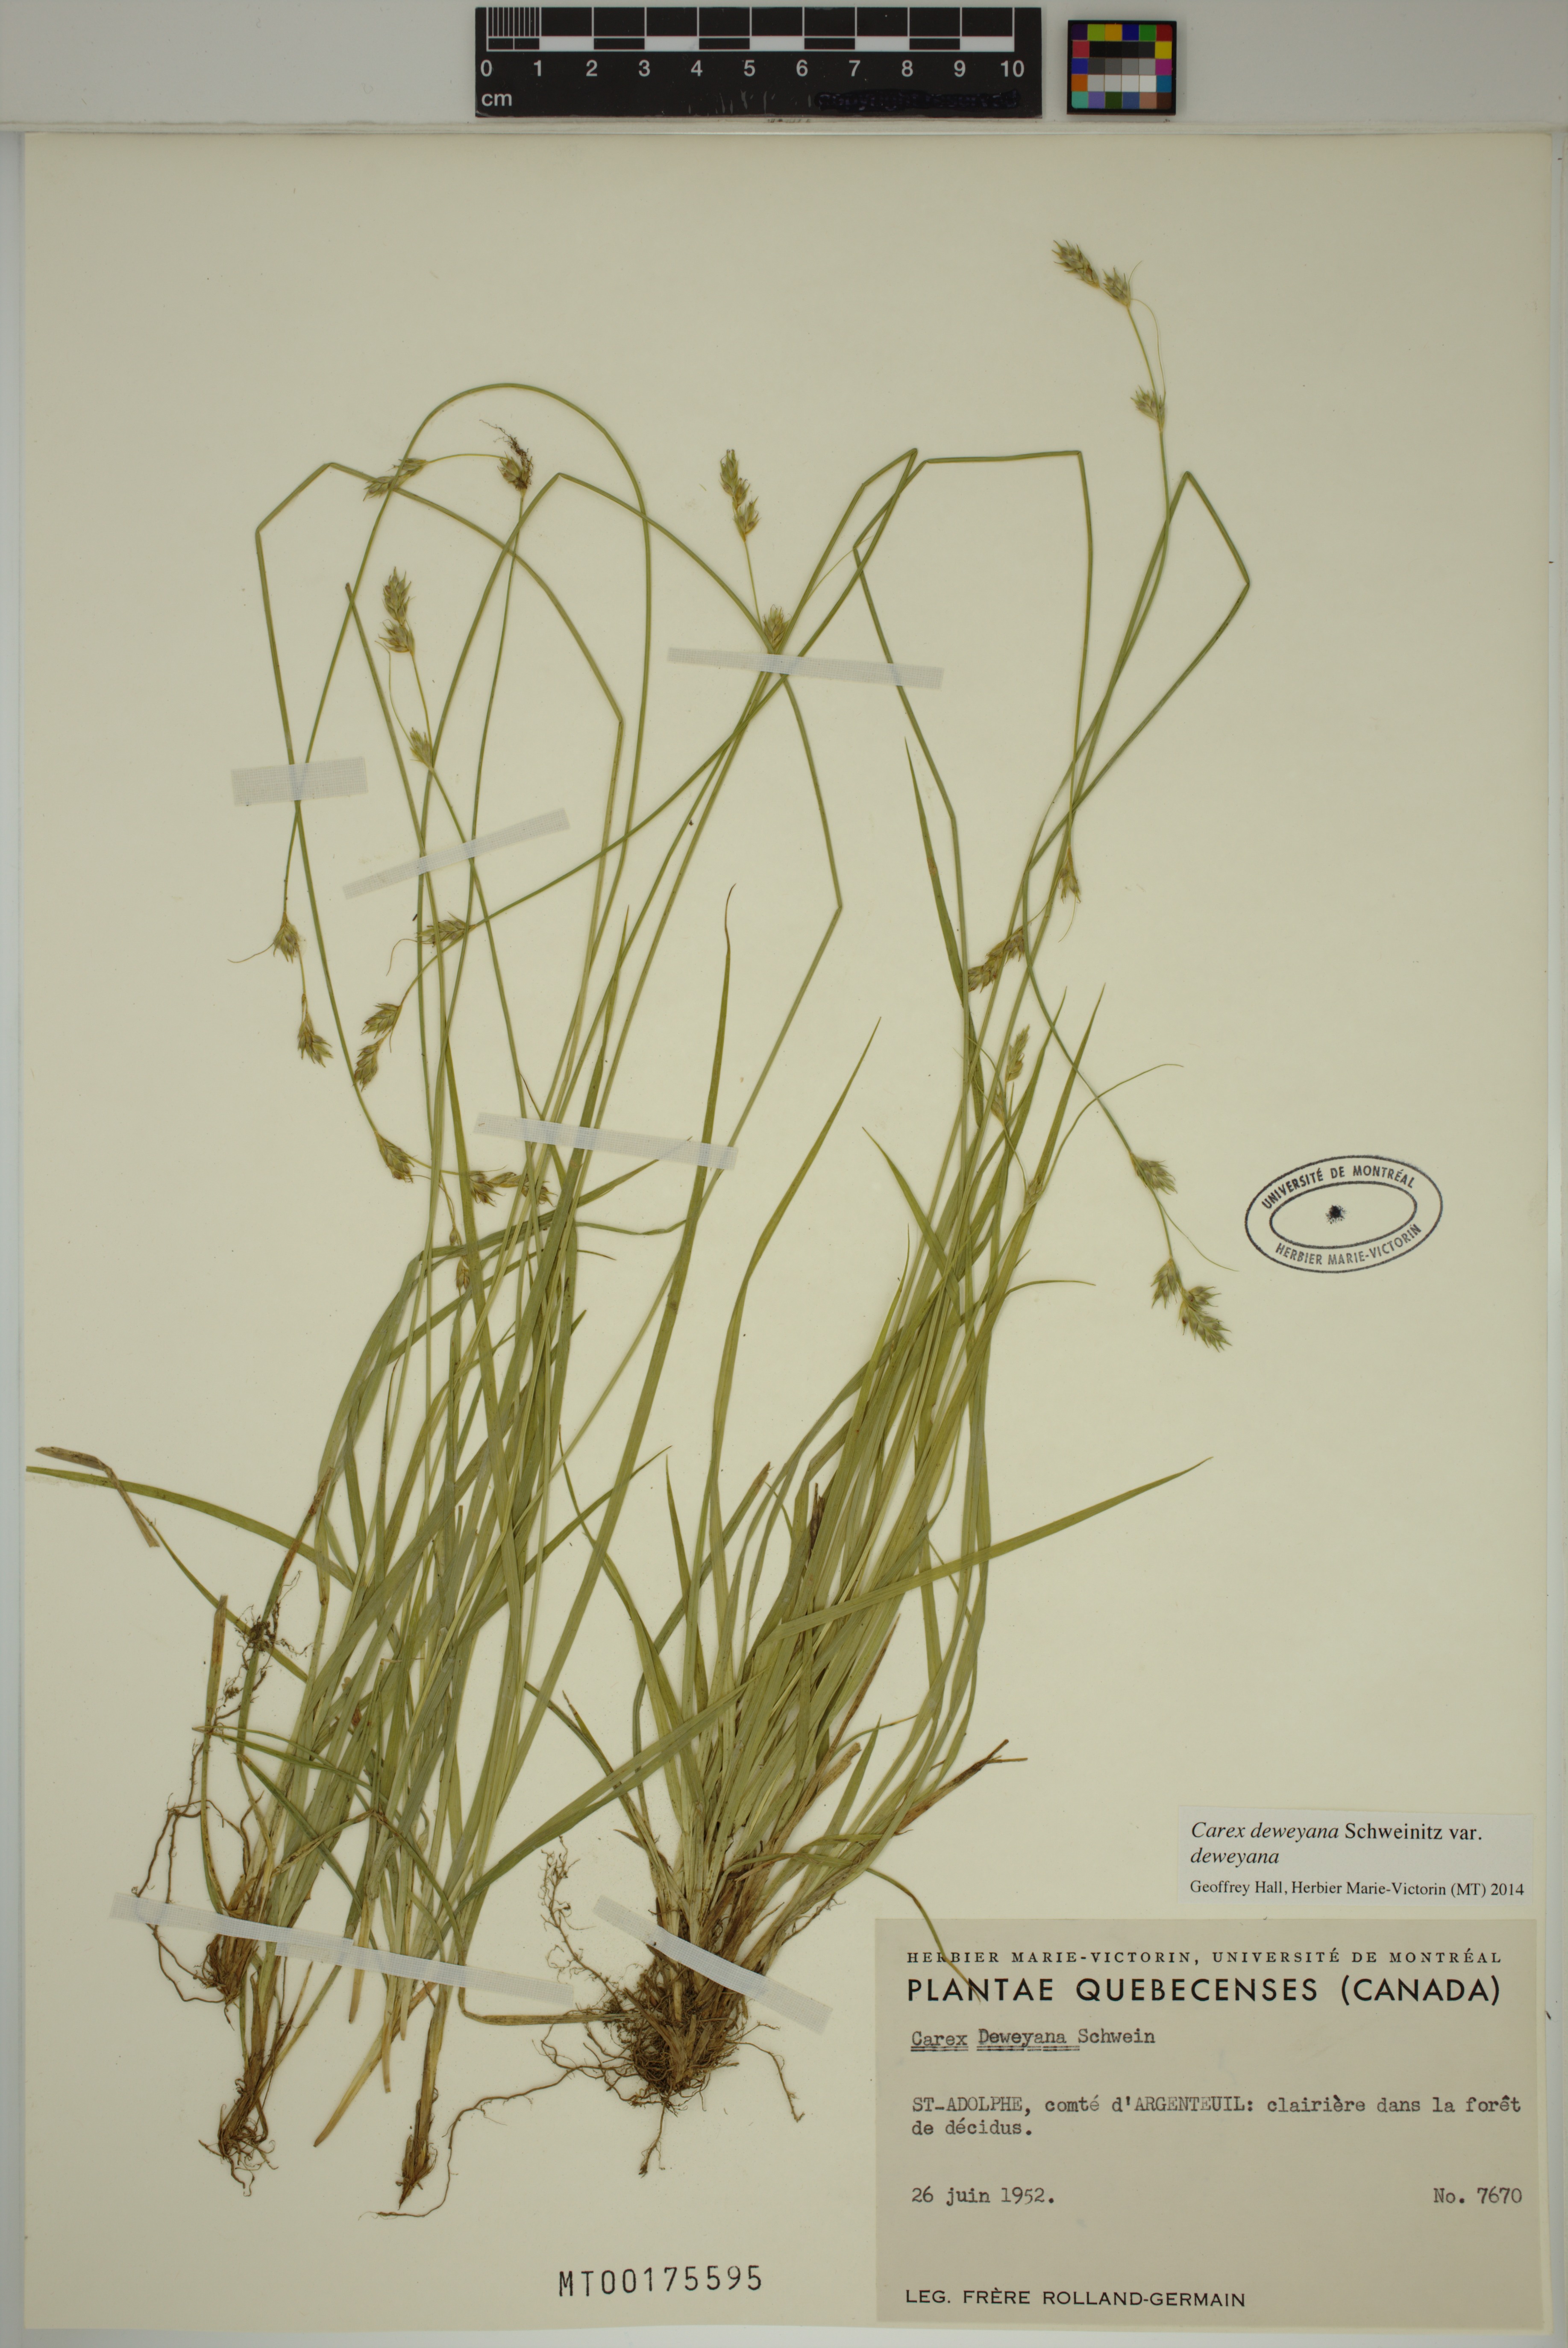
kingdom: Plantae
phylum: Tracheophyta
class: Liliopsida
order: Poales
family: Cyperaceae
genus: Carex
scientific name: Carex deweyana
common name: Dewey's sedge
